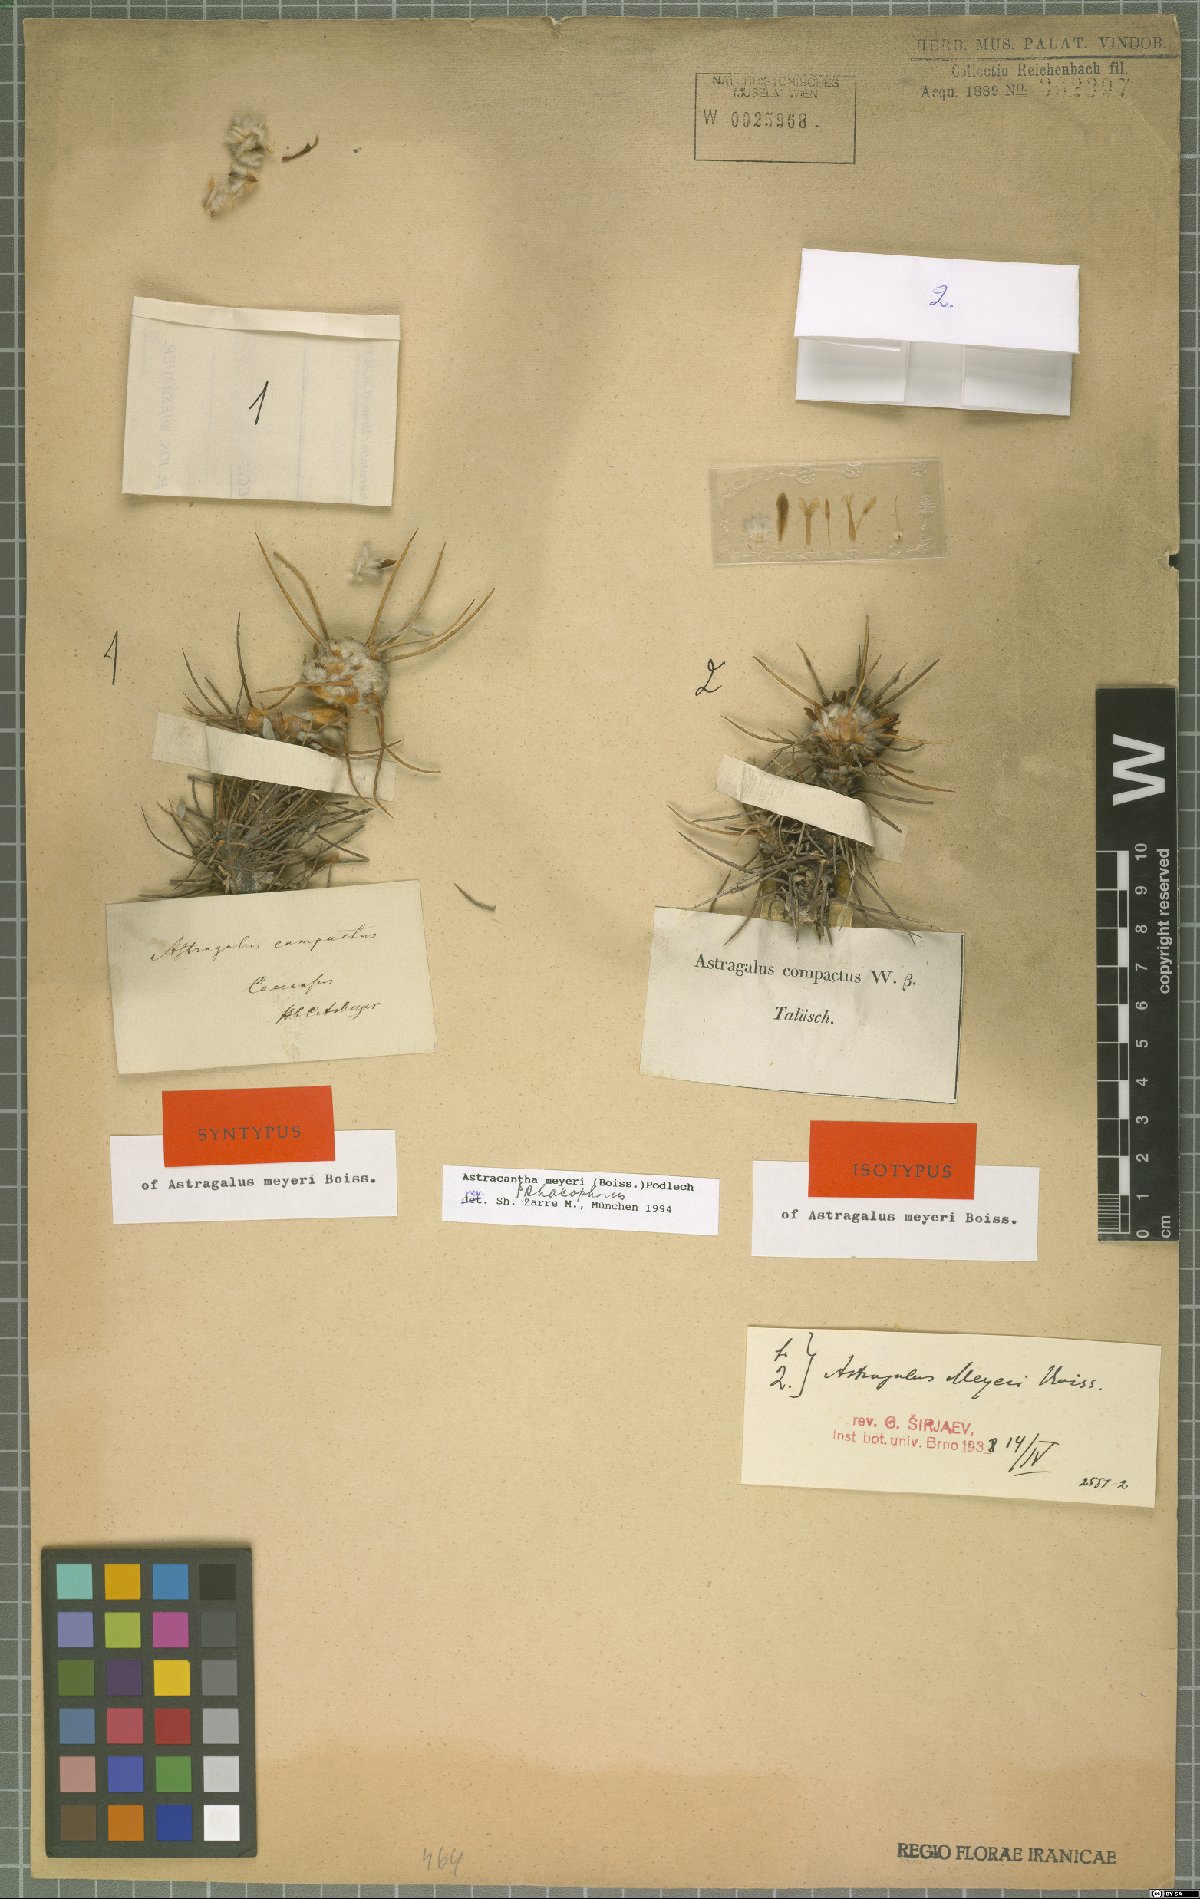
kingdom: Plantae
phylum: Tracheophyta
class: Magnoliopsida
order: Fabales
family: Fabaceae
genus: Astragalus
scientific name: Astragalus meyeri
